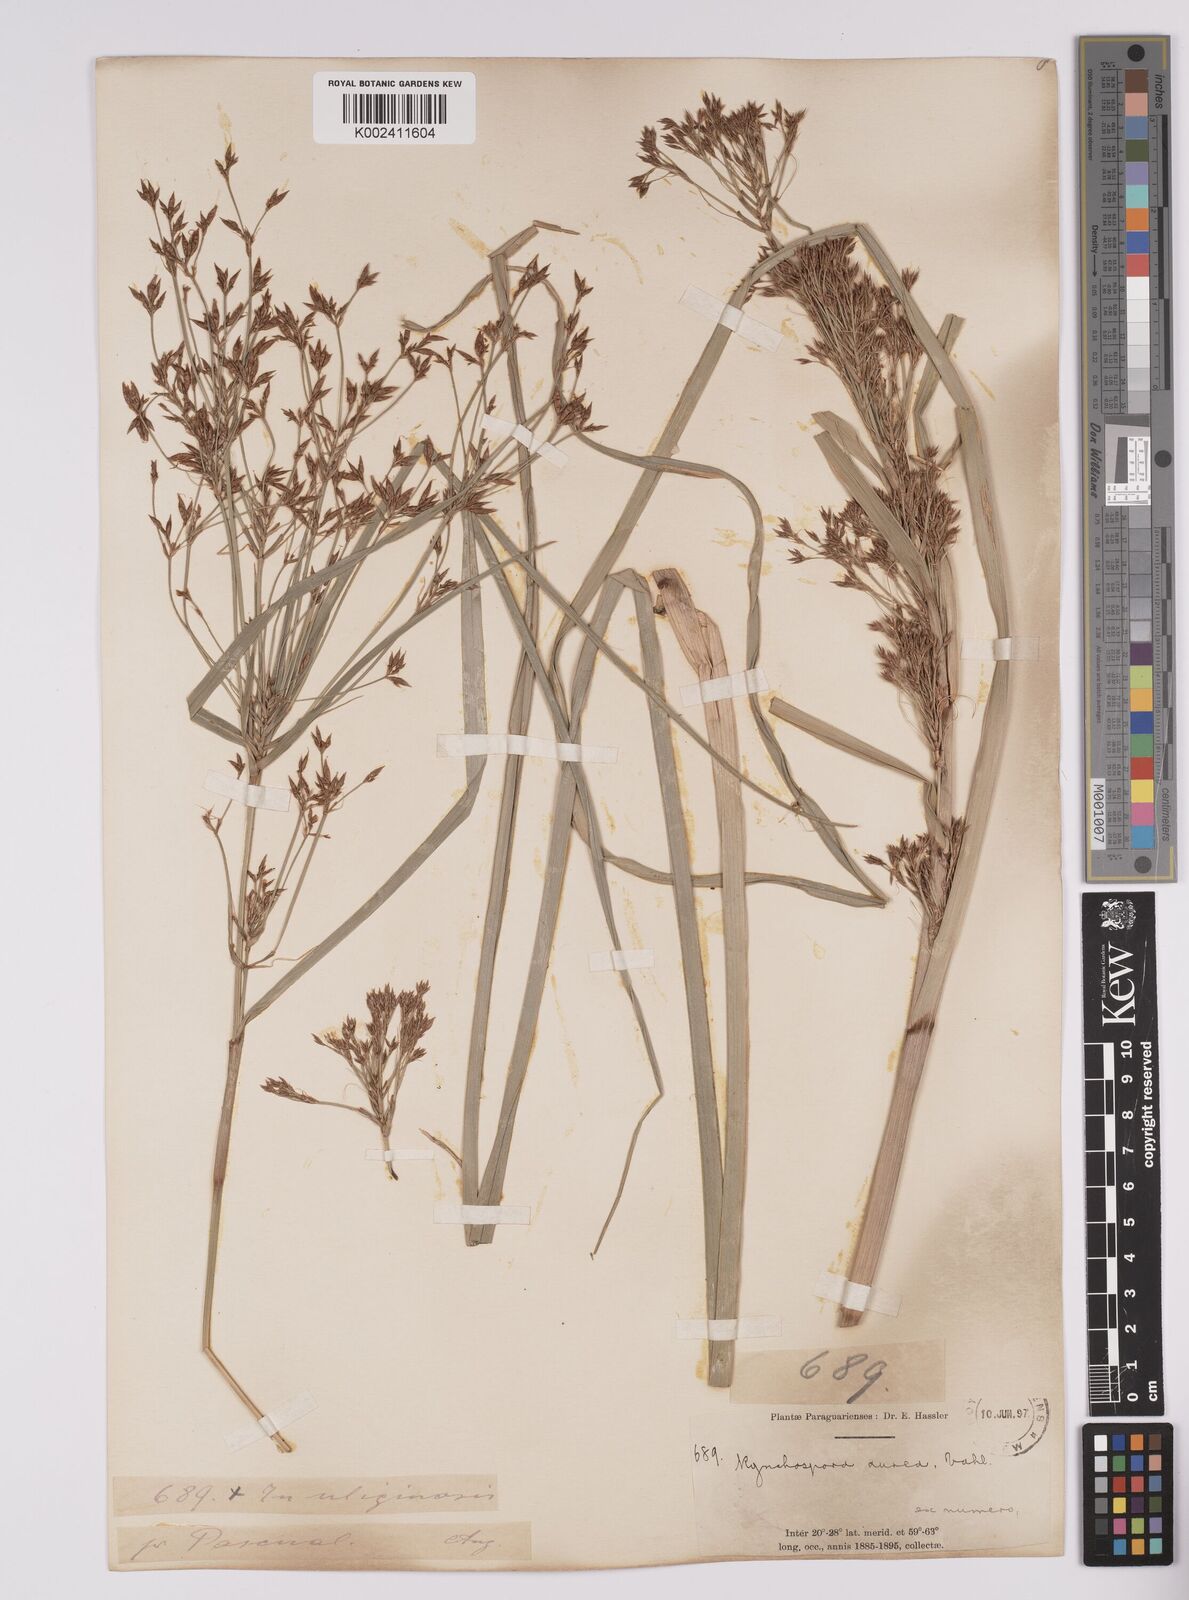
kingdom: Plantae
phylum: Tracheophyta
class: Liliopsida
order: Poales
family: Cyperaceae
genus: Rhynchospora
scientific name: Rhynchospora corymbosa
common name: Golden beak sedge
